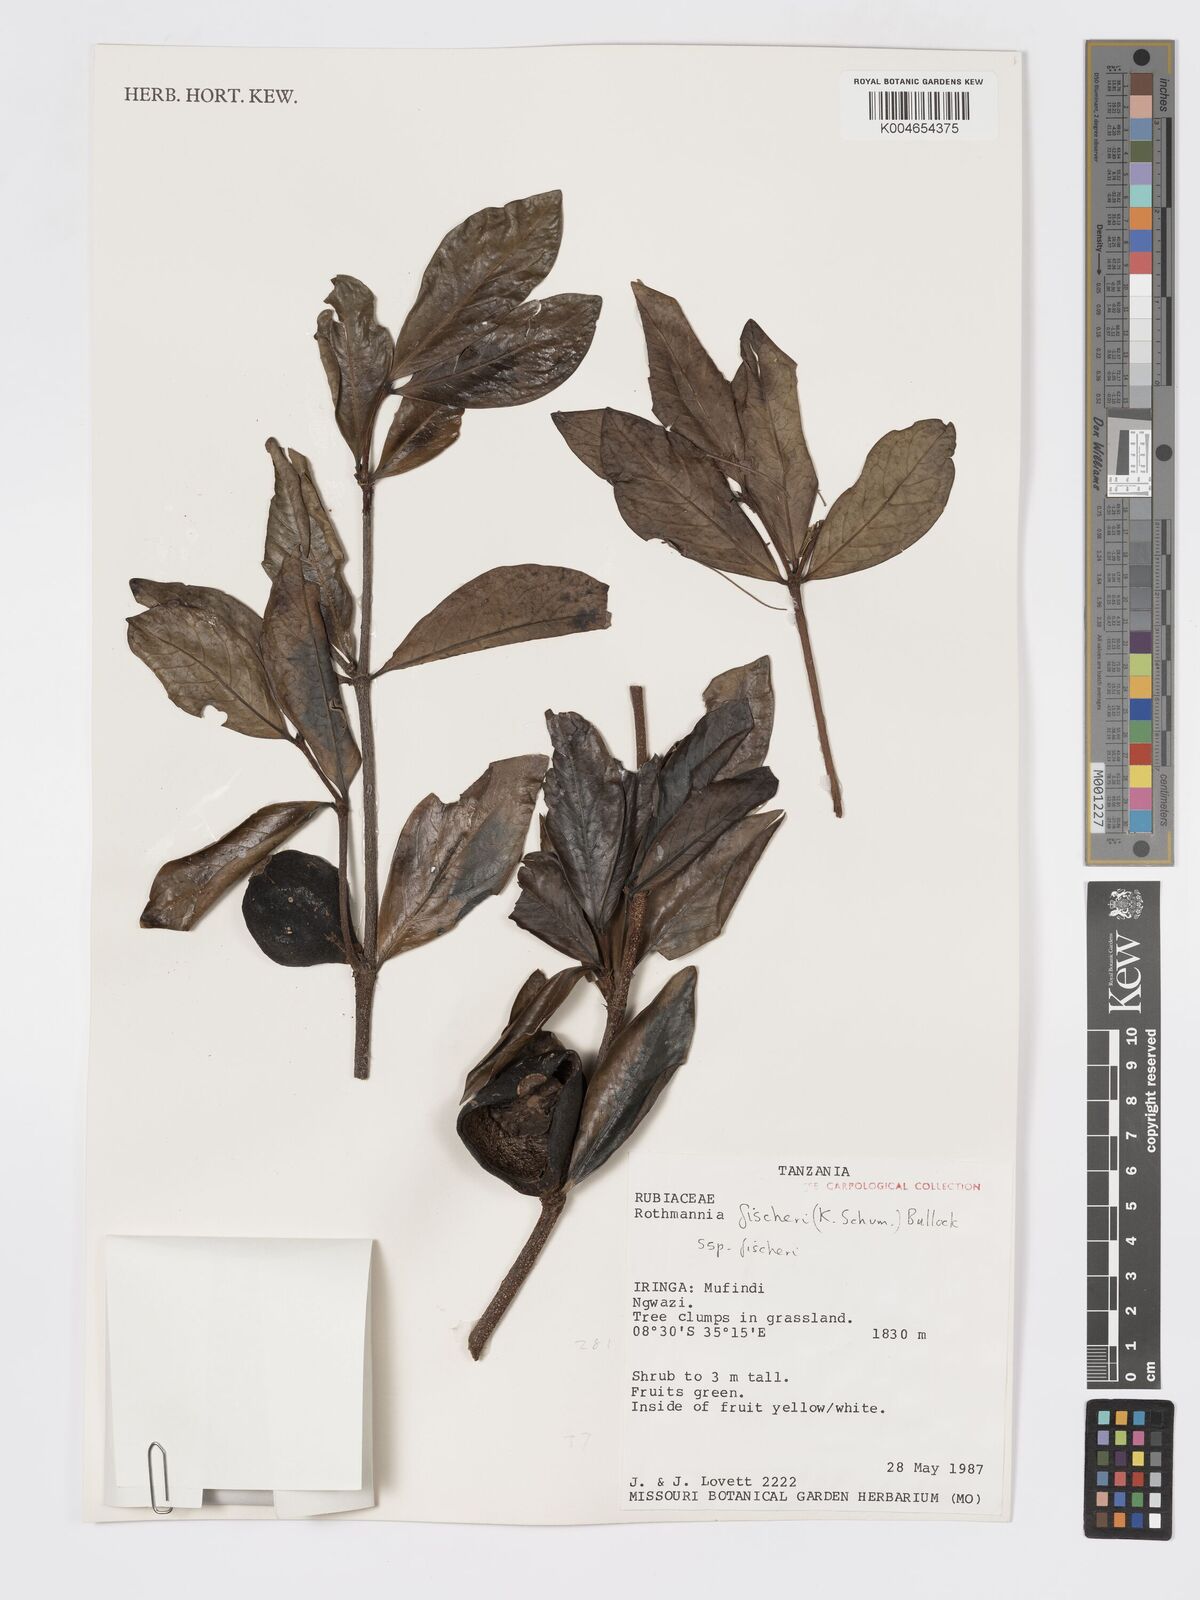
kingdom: Plantae
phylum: Tracheophyta
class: Magnoliopsida
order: Gentianales
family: Rubiaceae
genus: Rothmannia
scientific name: Rothmannia fischeri
